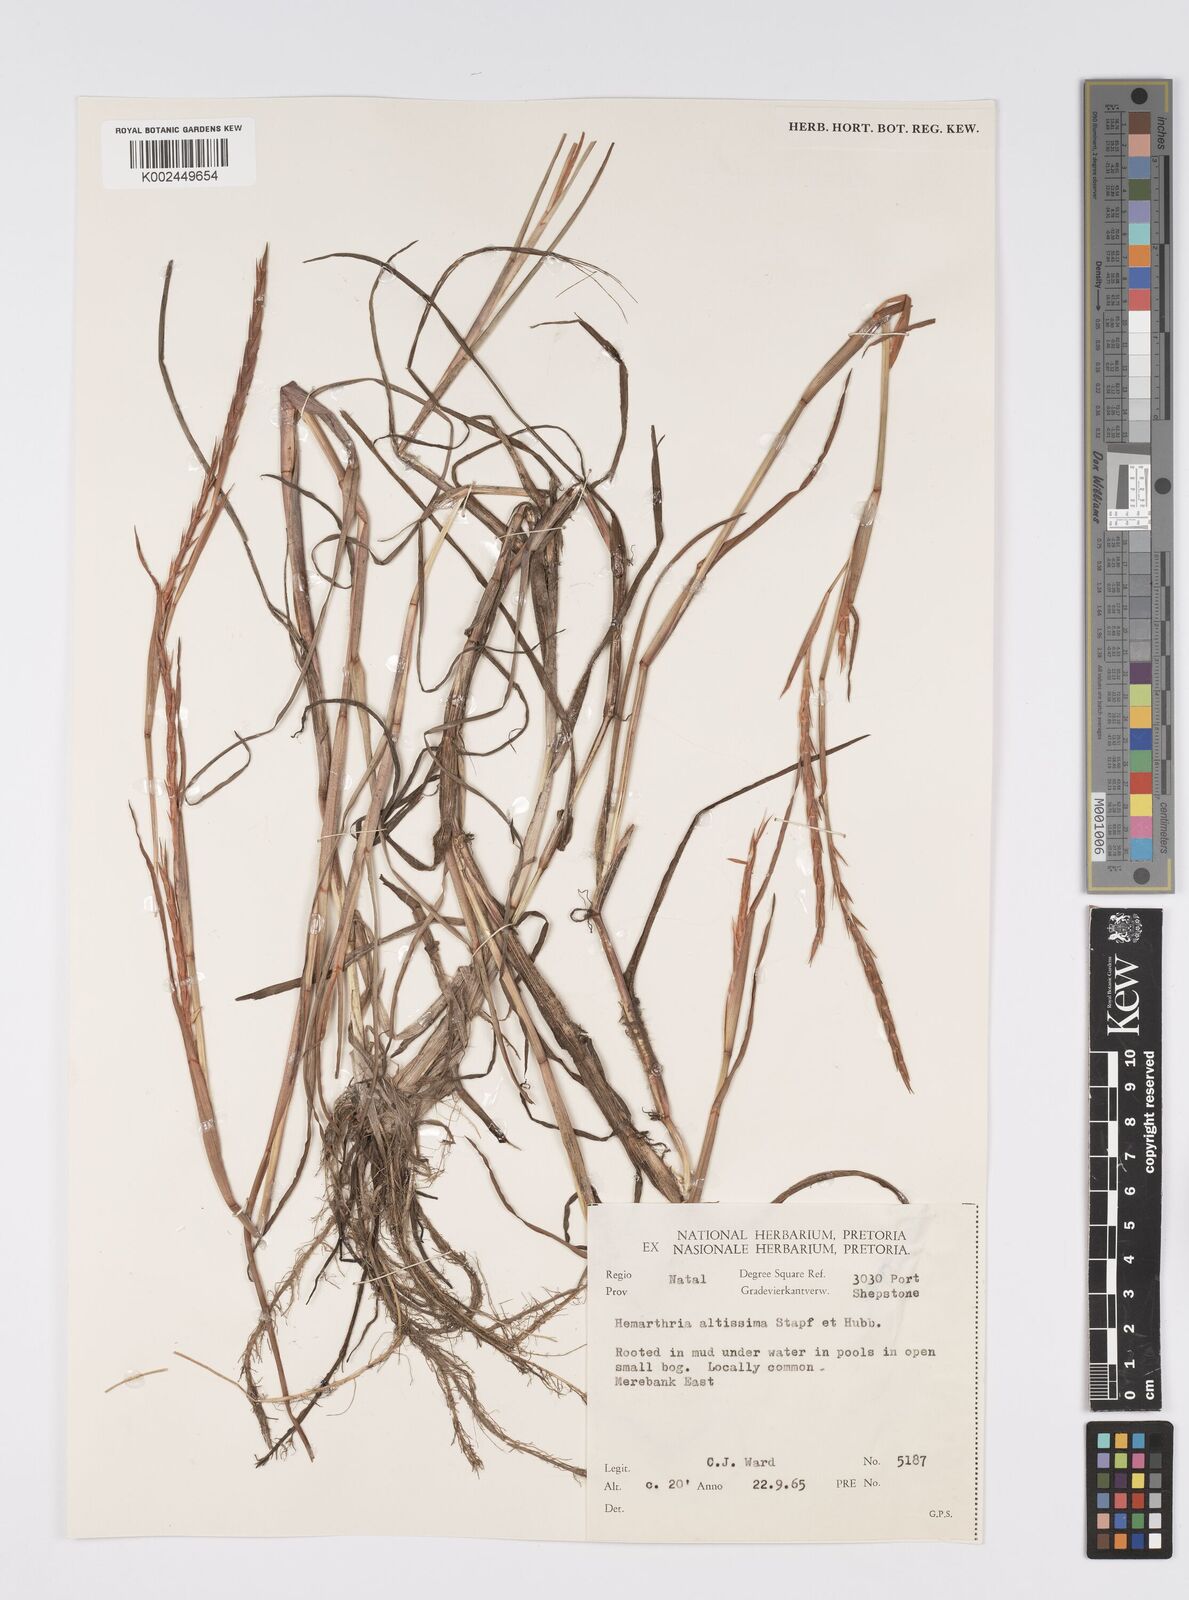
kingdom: Plantae
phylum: Tracheophyta
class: Liliopsida
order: Poales
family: Poaceae
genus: Hemarthria
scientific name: Hemarthria altissima
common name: African jointgrass
